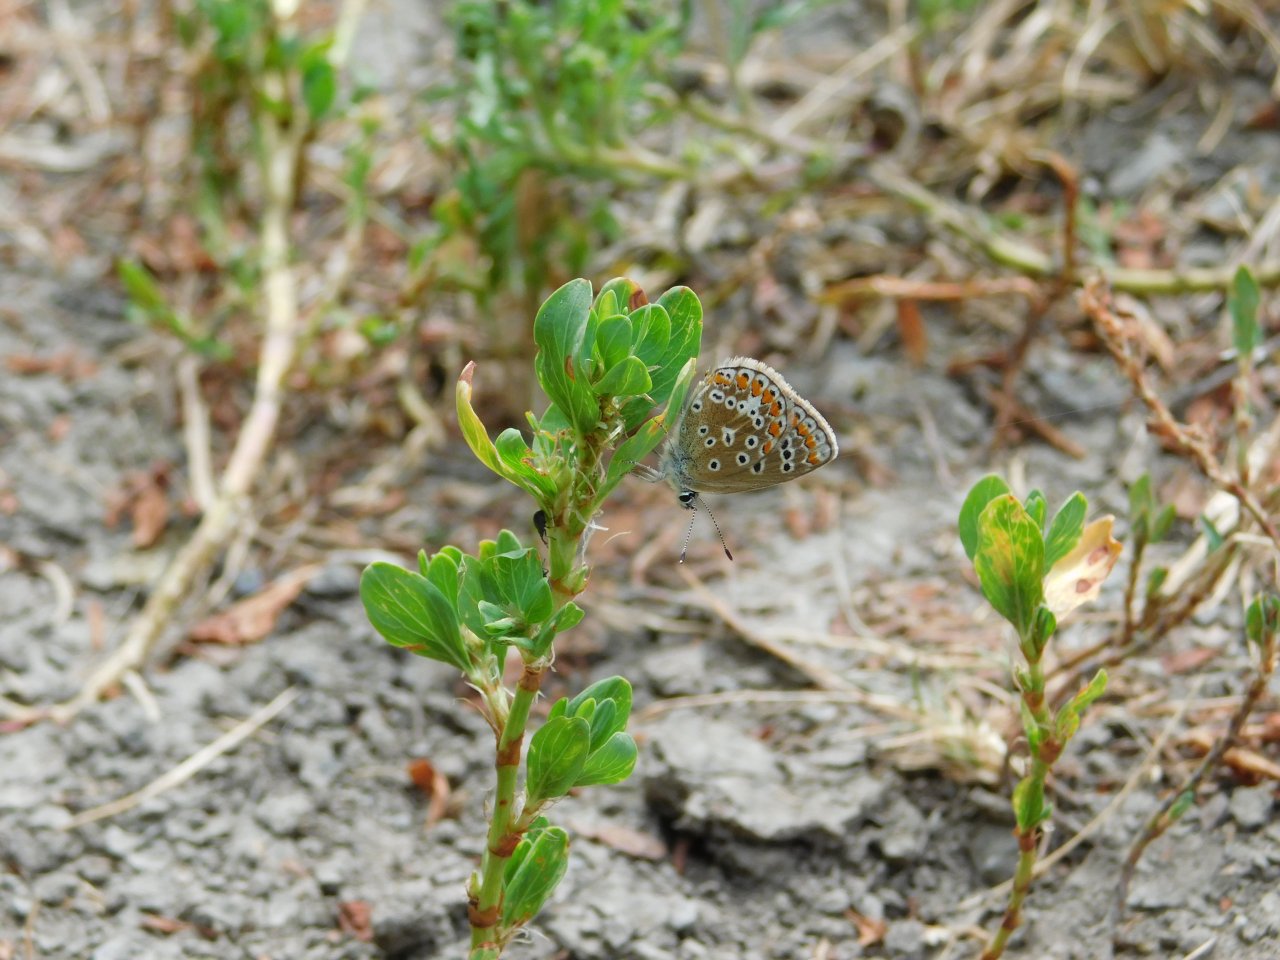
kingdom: Animalia
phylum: Arthropoda
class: Insecta
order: Lepidoptera
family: Lycaenidae
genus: Polyommatus
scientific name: Polyommatus icarus
